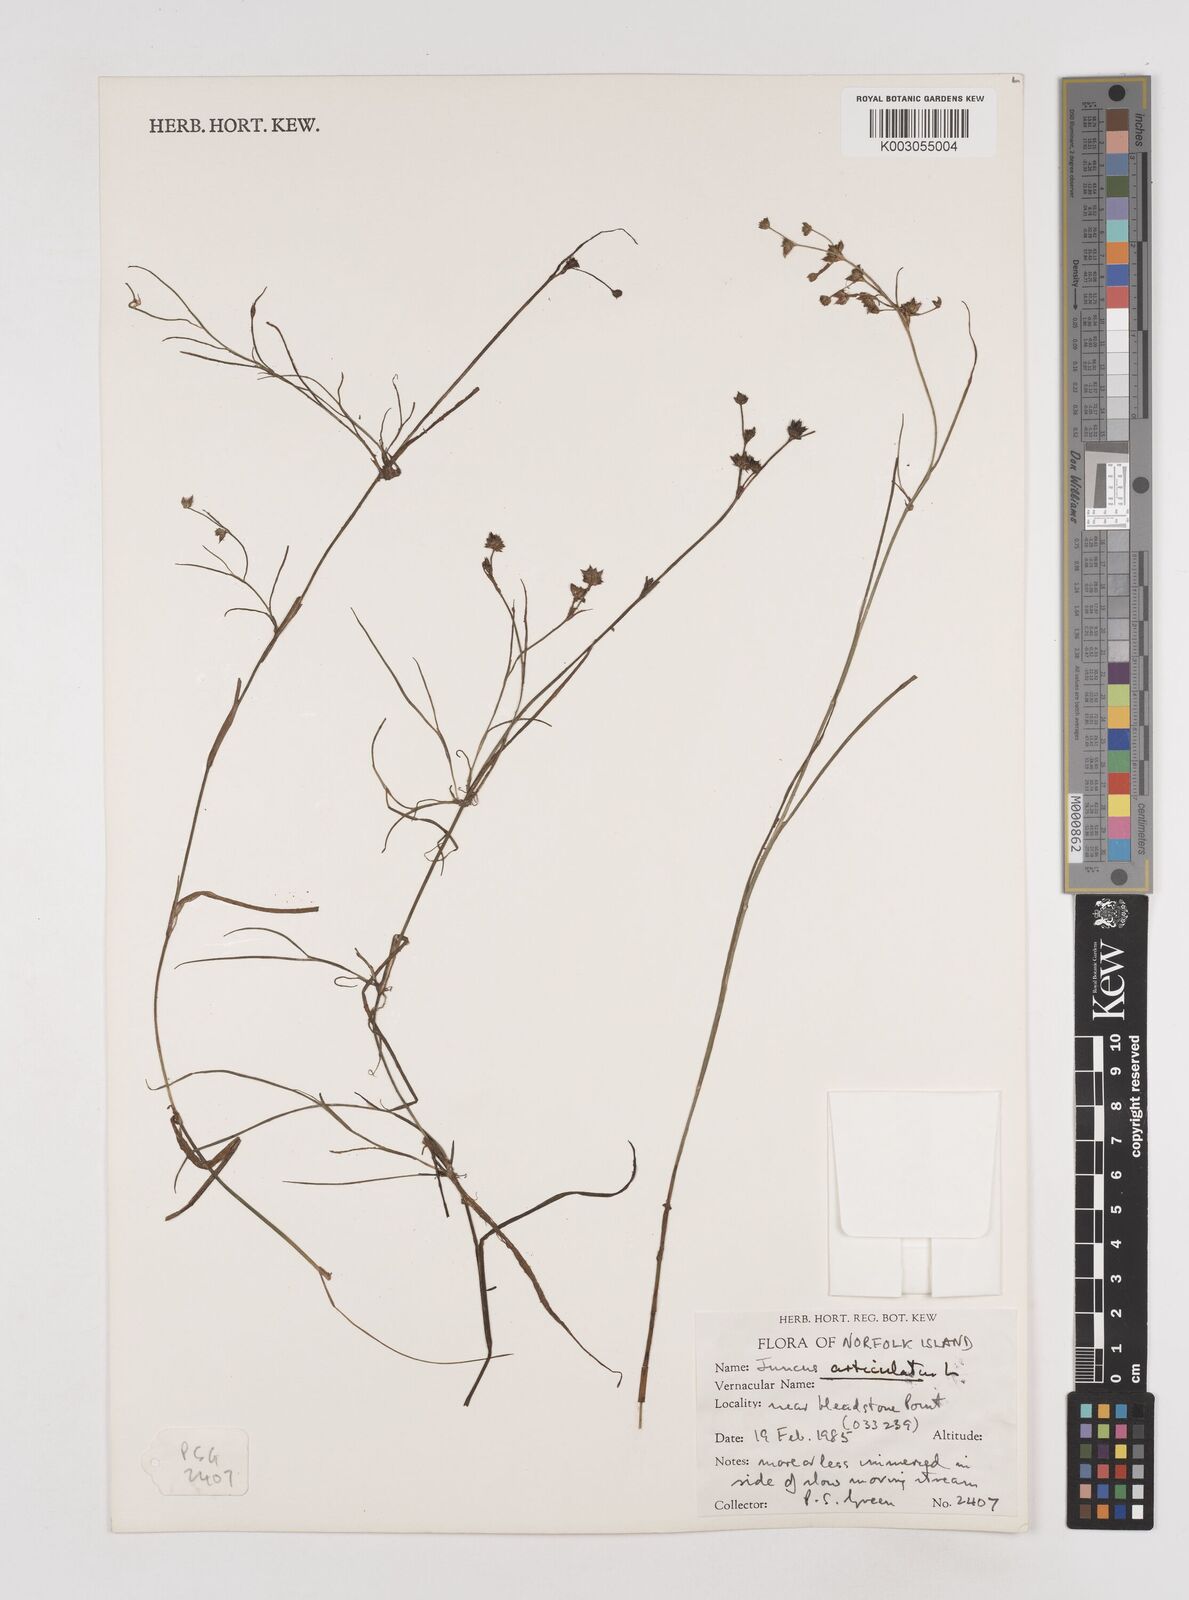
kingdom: Plantae
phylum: Tracheophyta
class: Liliopsida
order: Poales
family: Juncaceae
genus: Juncus
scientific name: Juncus articulatus
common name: Jointed rush
